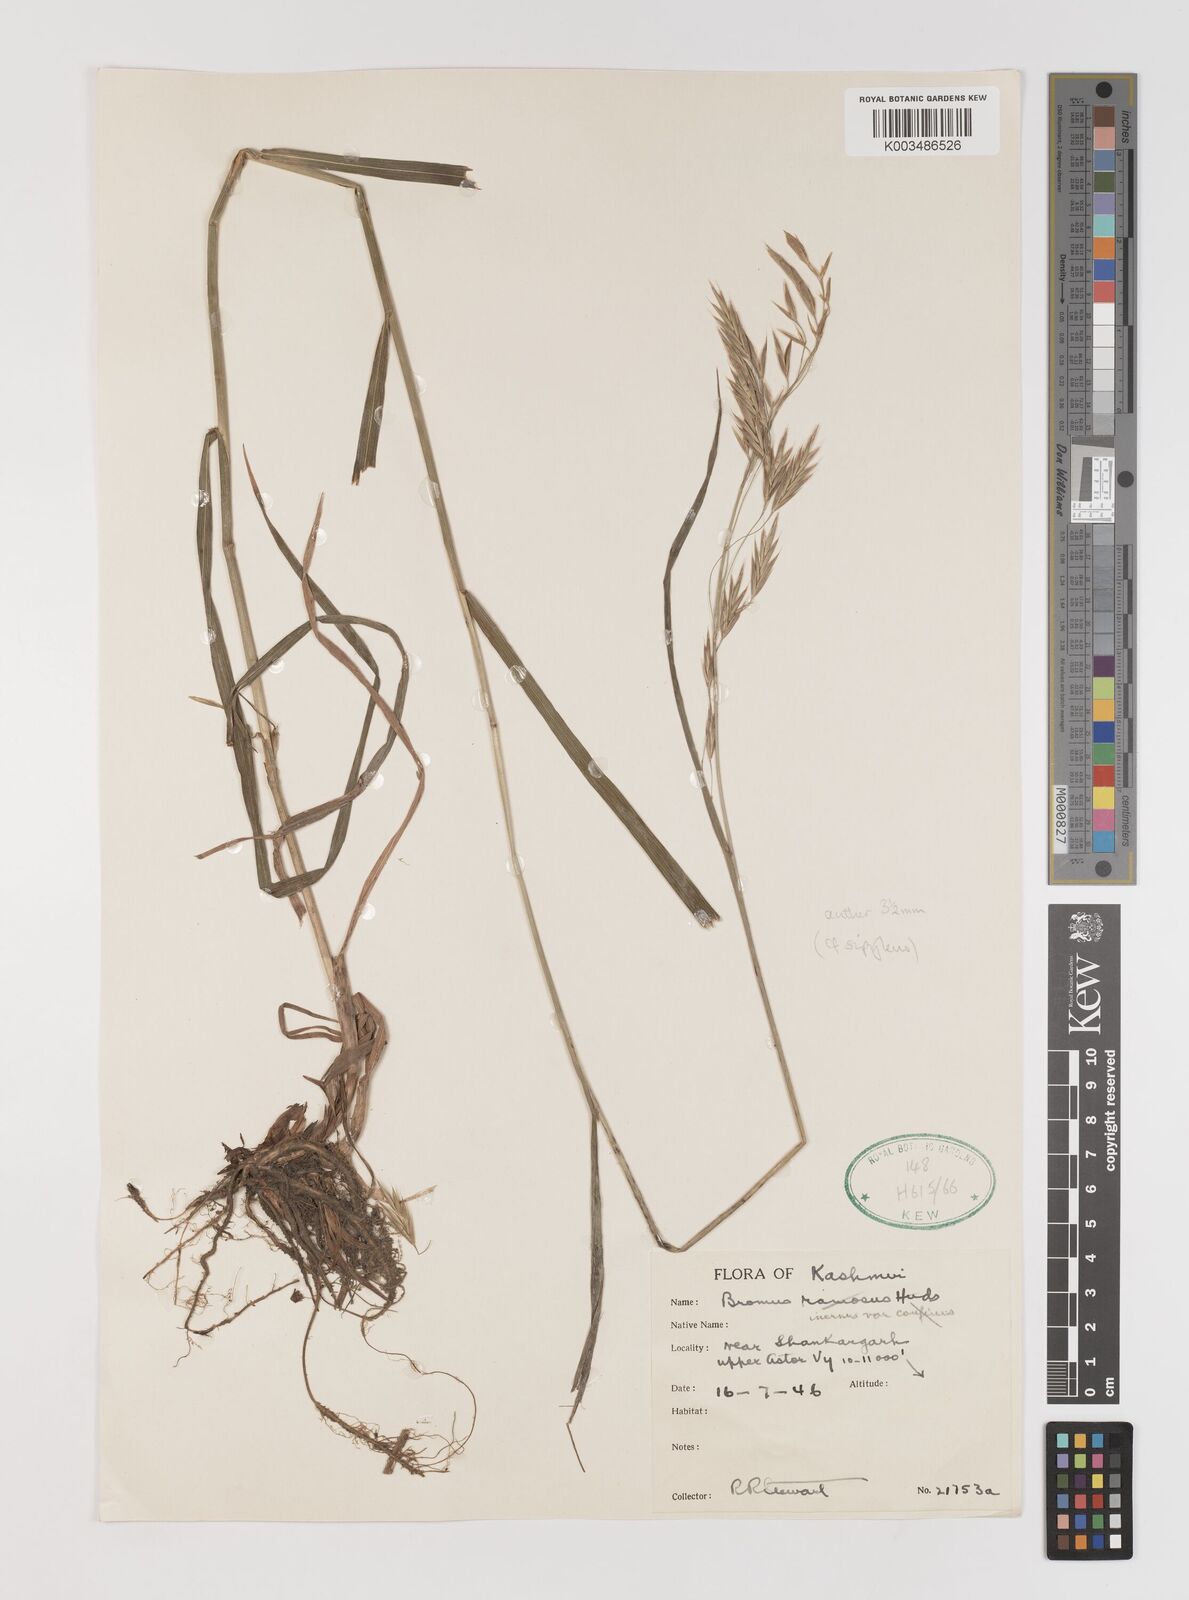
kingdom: Plantae
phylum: Tracheophyta
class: Liliopsida
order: Poales
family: Poaceae
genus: Bromus
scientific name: Bromus inermis
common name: Smooth brome
